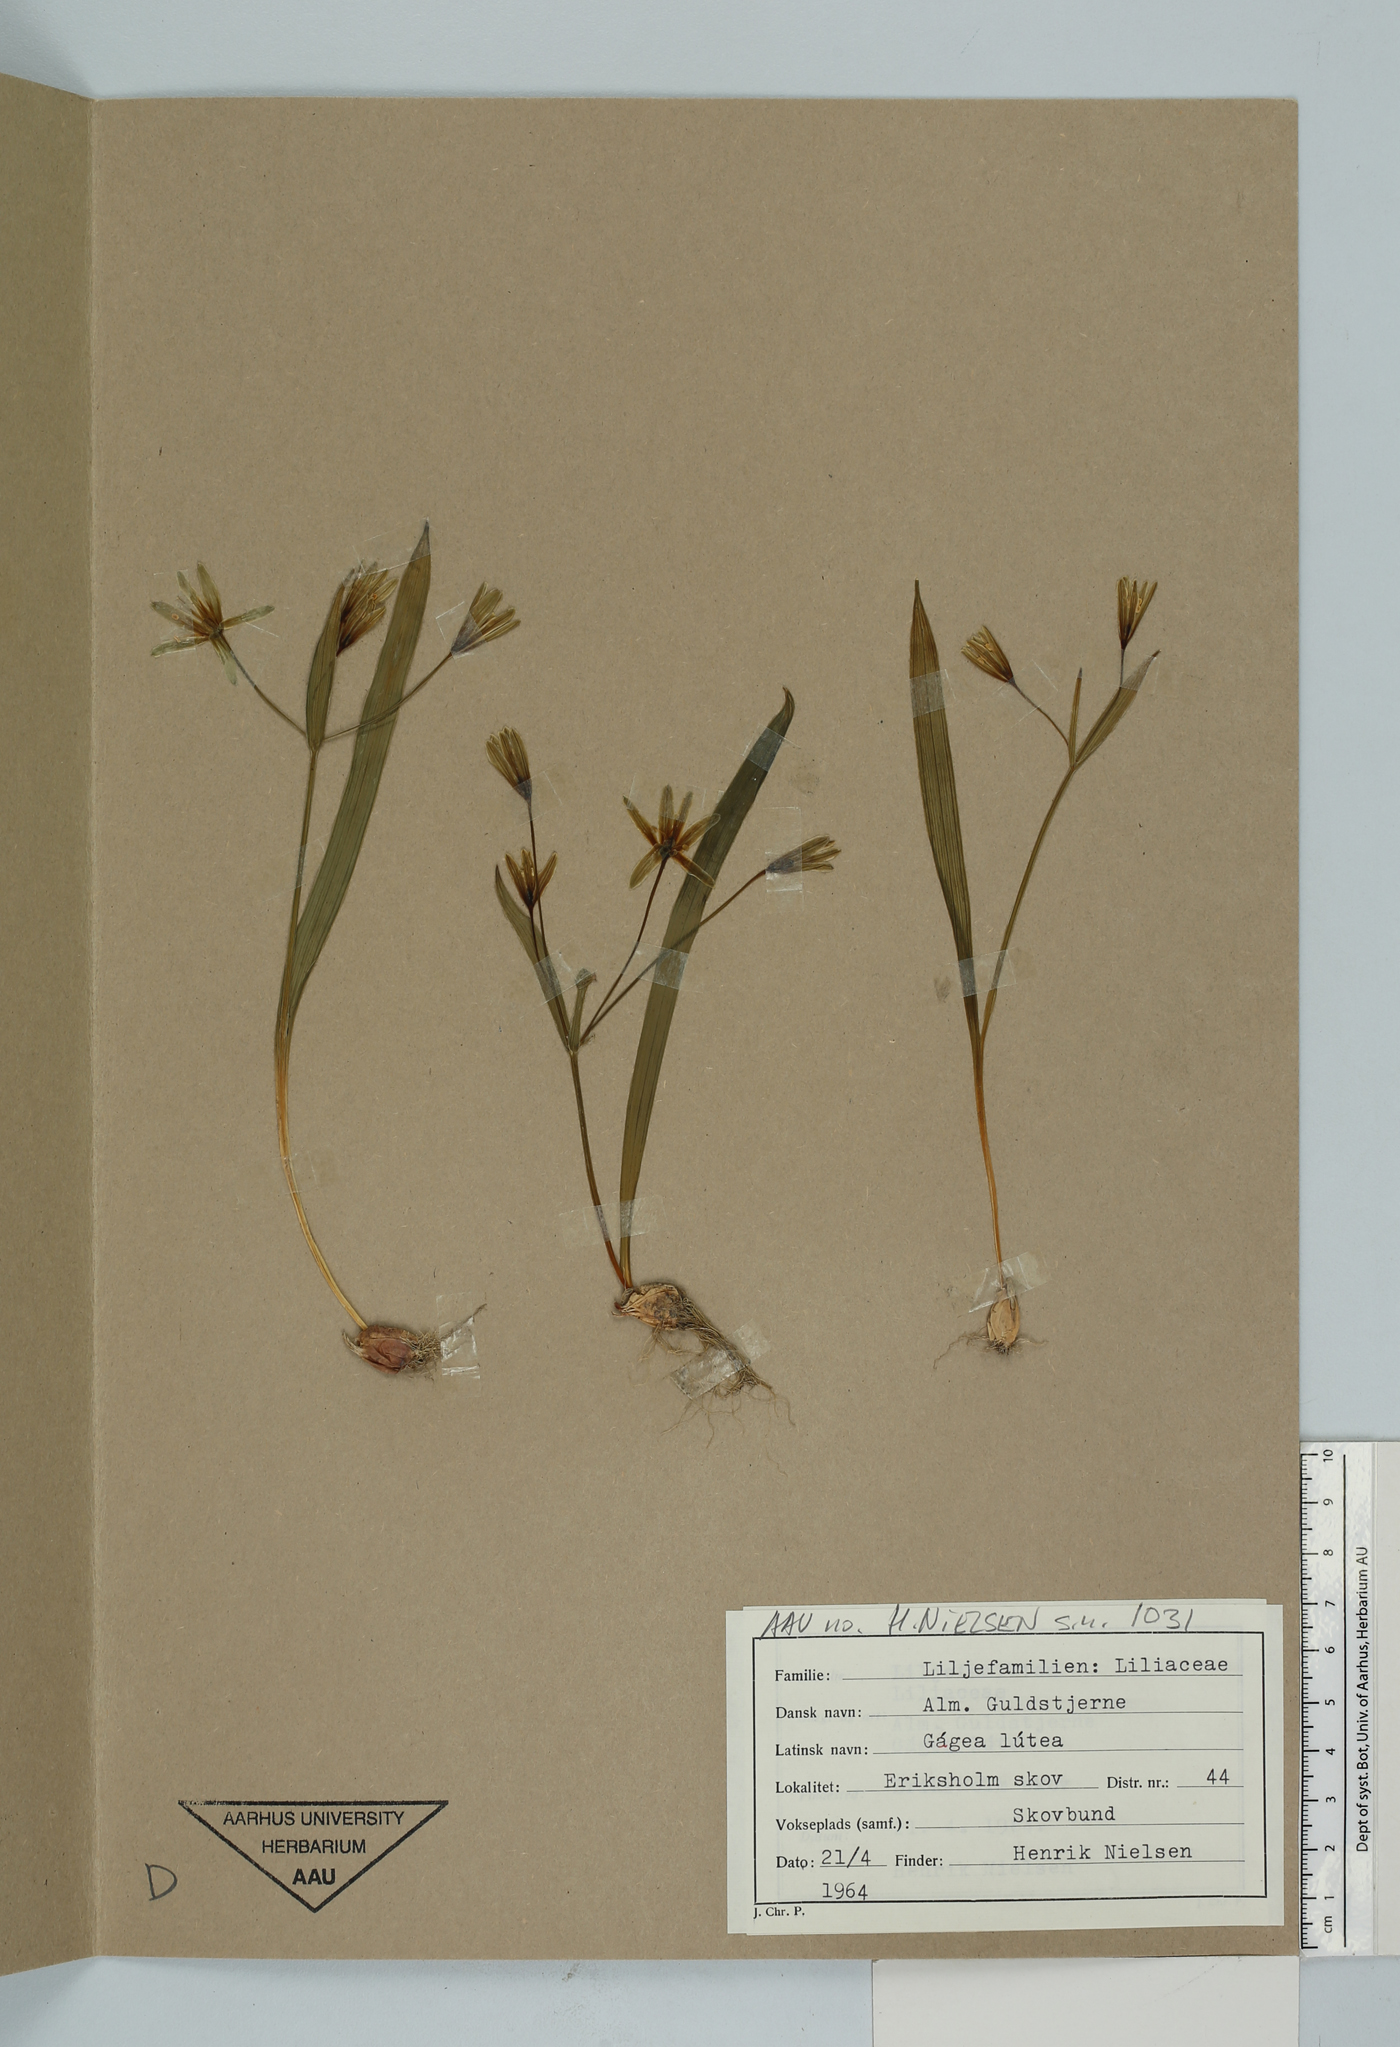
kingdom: Plantae
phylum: Tracheophyta
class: Liliopsida
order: Liliales
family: Liliaceae
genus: Gagea
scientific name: Gagea lutea
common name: Yellow star-of-bethlehem
